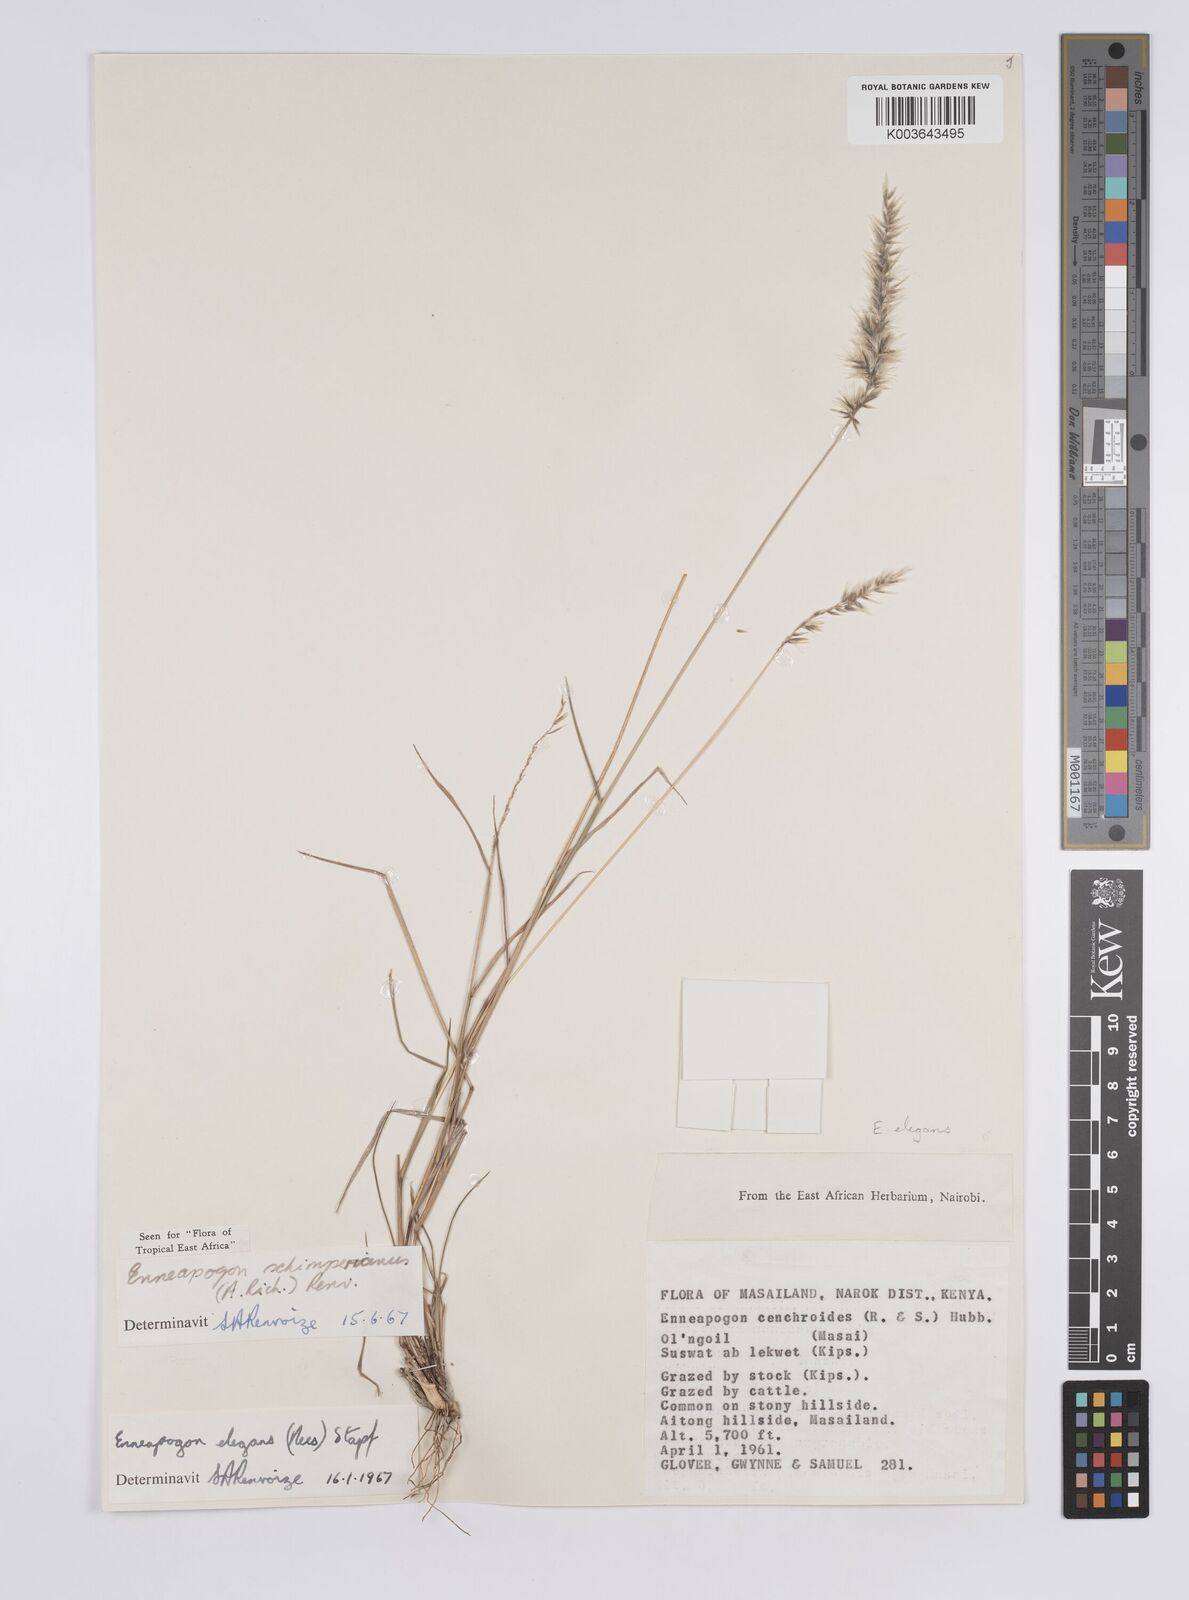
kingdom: Plantae
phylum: Tracheophyta
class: Liliopsida
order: Poales
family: Poaceae
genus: Enneapogon
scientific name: Enneapogon persicus
